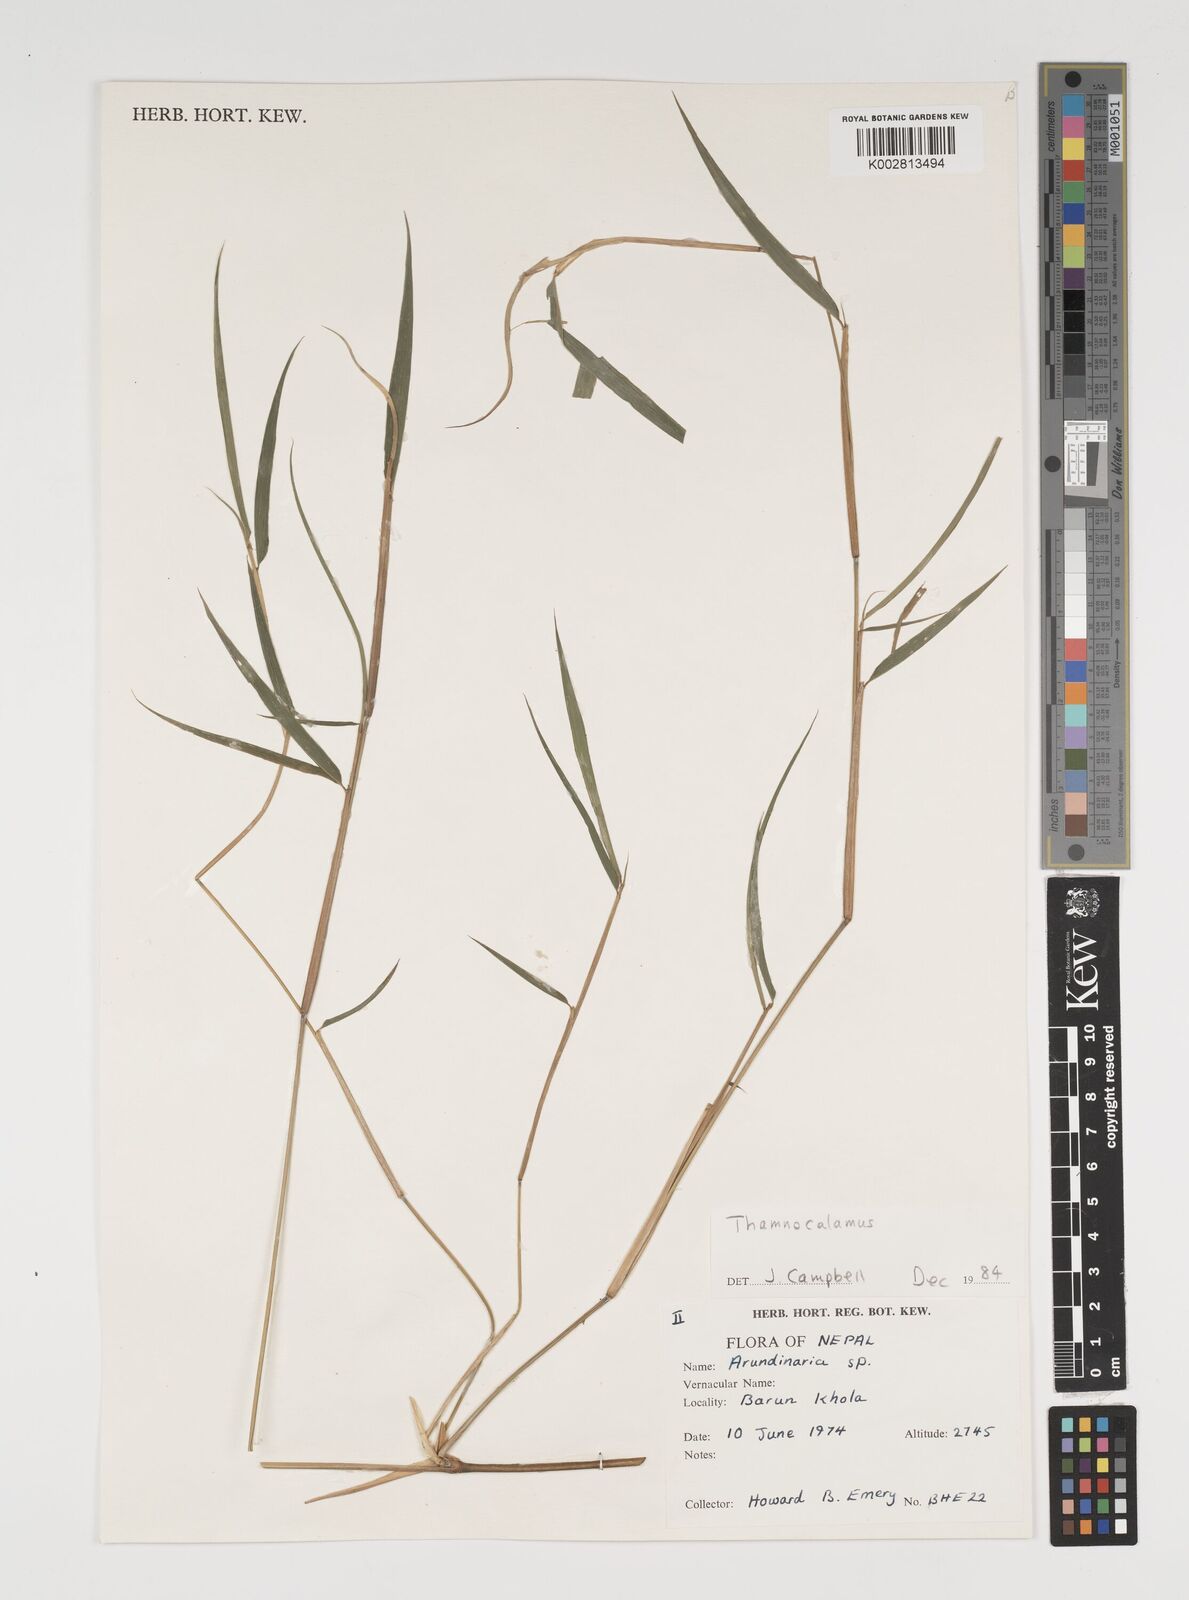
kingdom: Plantae
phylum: Tracheophyta
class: Liliopsida
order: Poales
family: Poaceae
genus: Thamnocalamus
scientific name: Thamnocalamus spathiflorus
